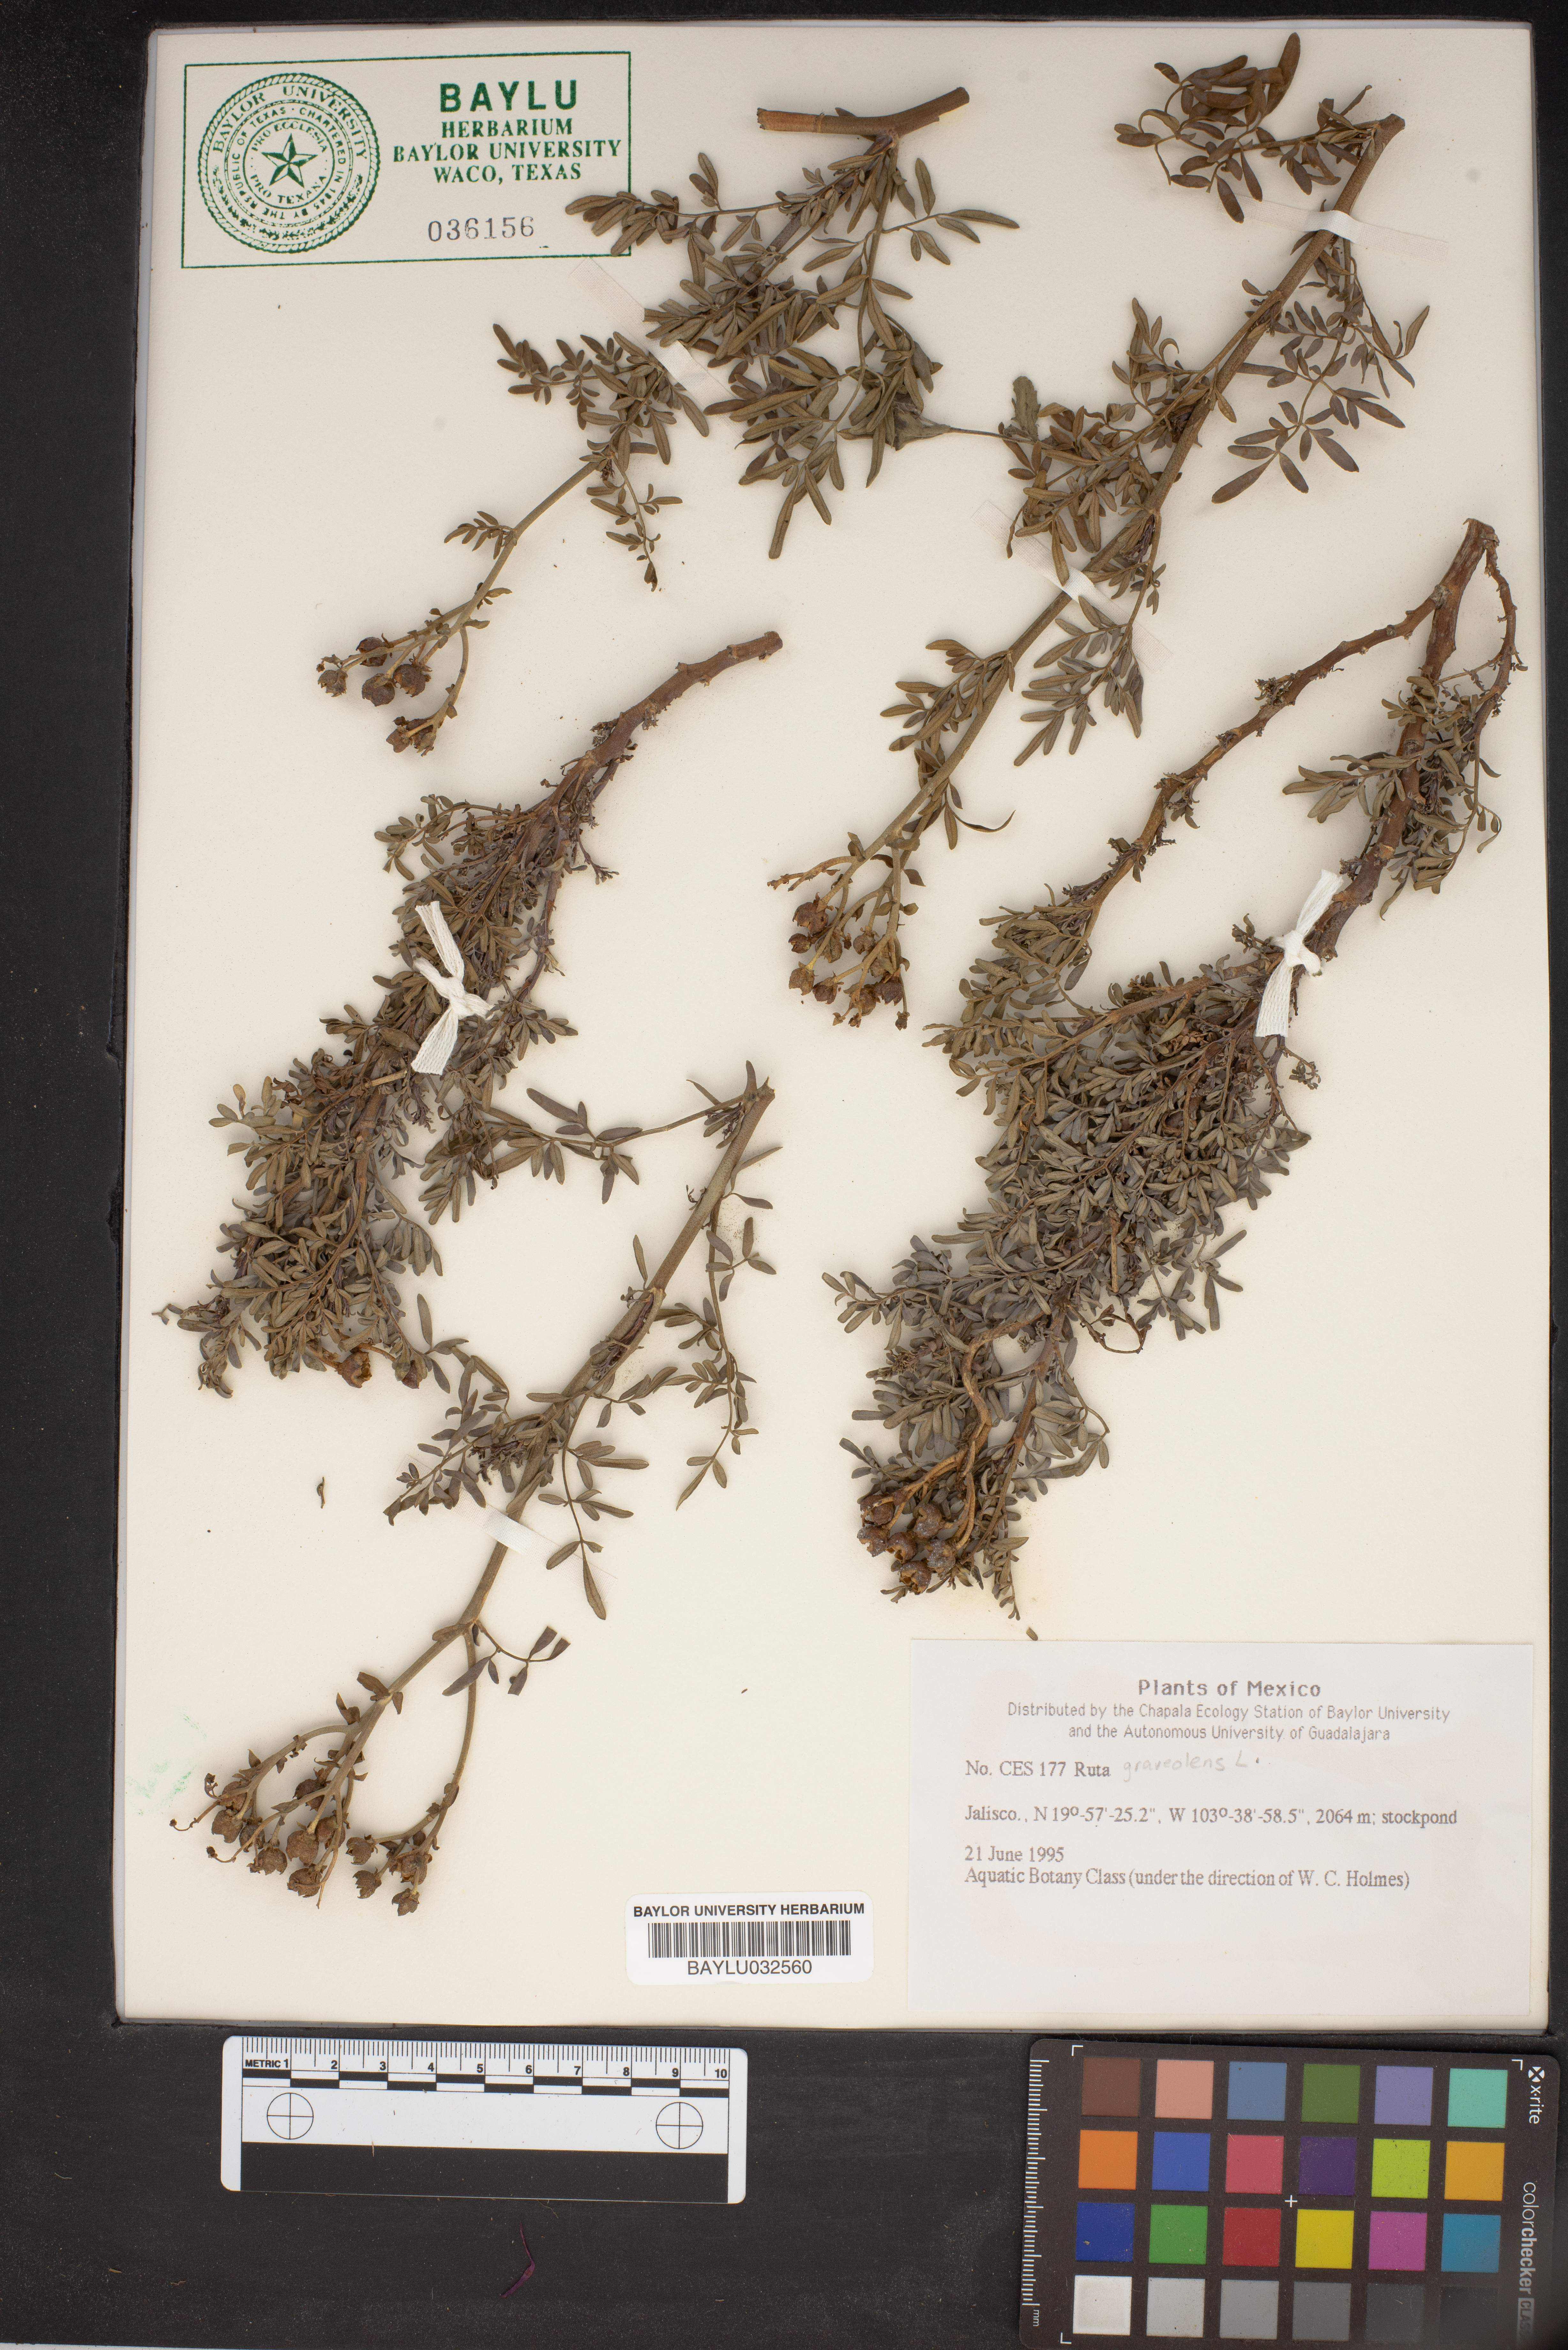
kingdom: Plantae
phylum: Tracheophyta
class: Magnoliopsida
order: Sapindales
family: Rutaceae
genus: Ruta
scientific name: Ruta graveolens
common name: Common rue
